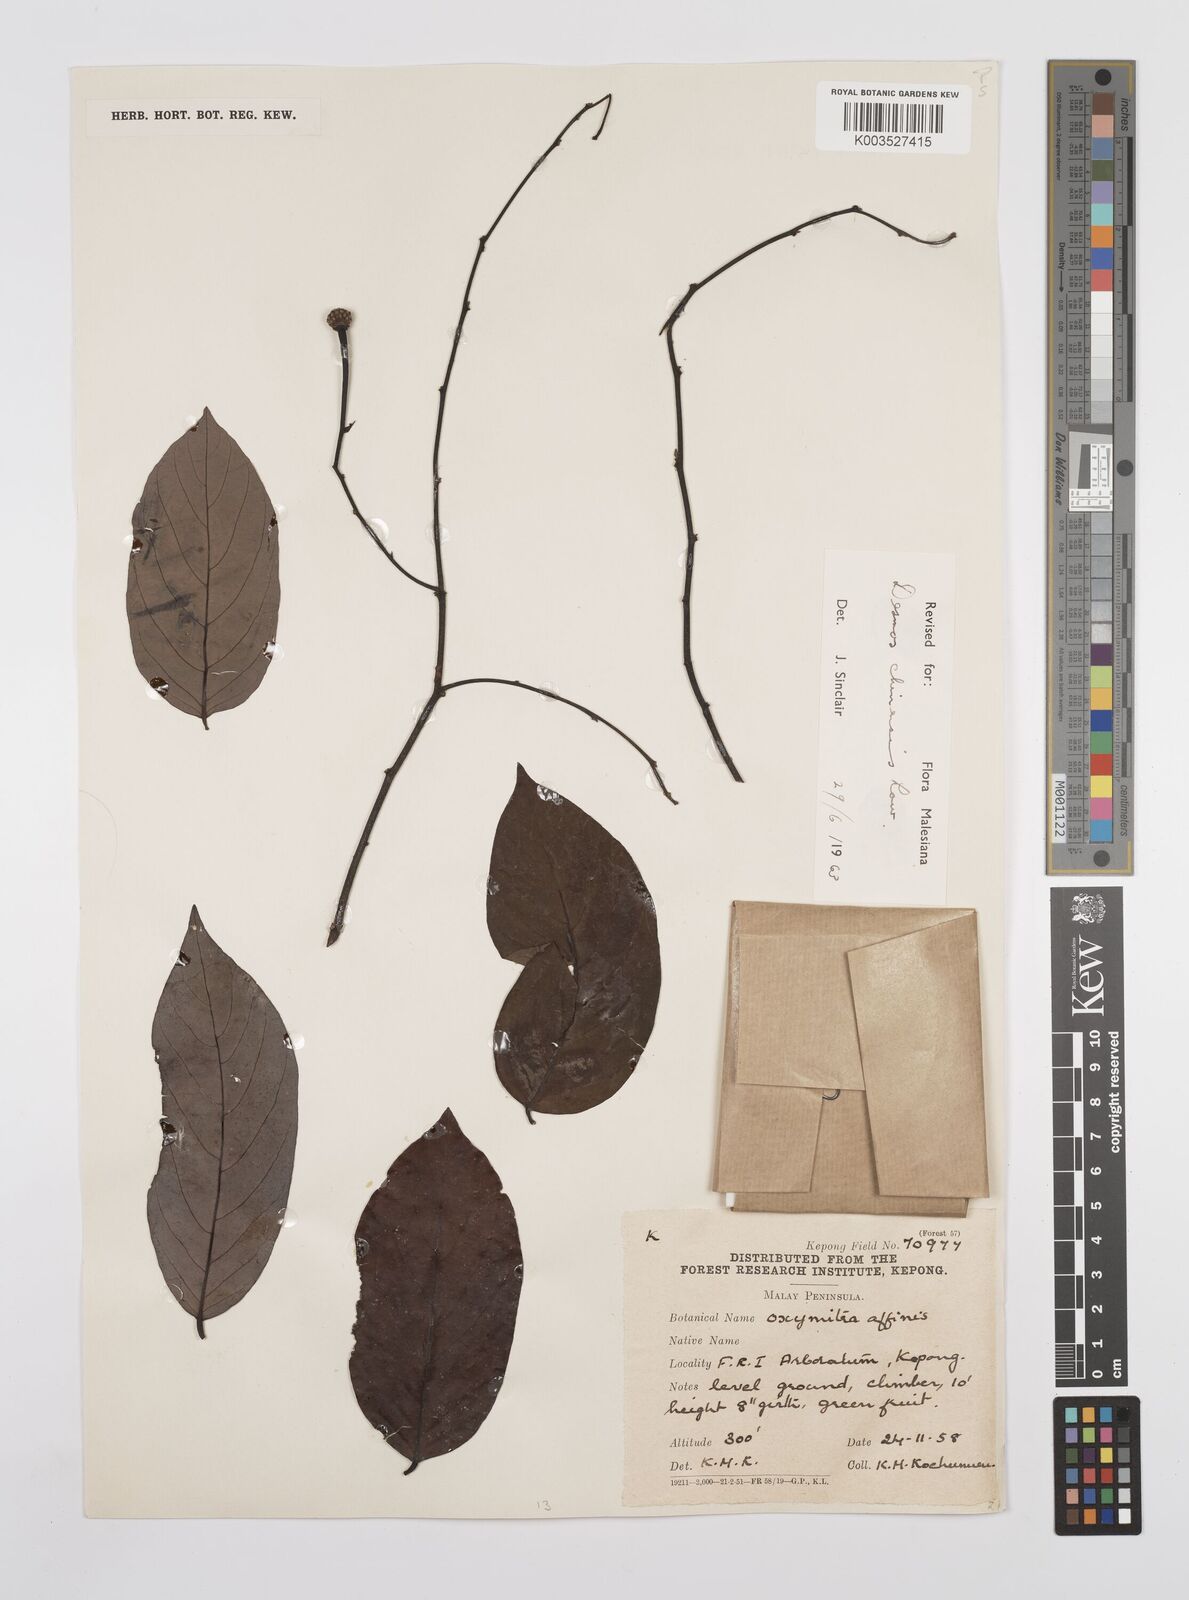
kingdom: Plantae
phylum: Tracheophyta
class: Magnoliopsida
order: Magnoliales
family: Annonaceae
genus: Desmos
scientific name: Desmos chinensis
